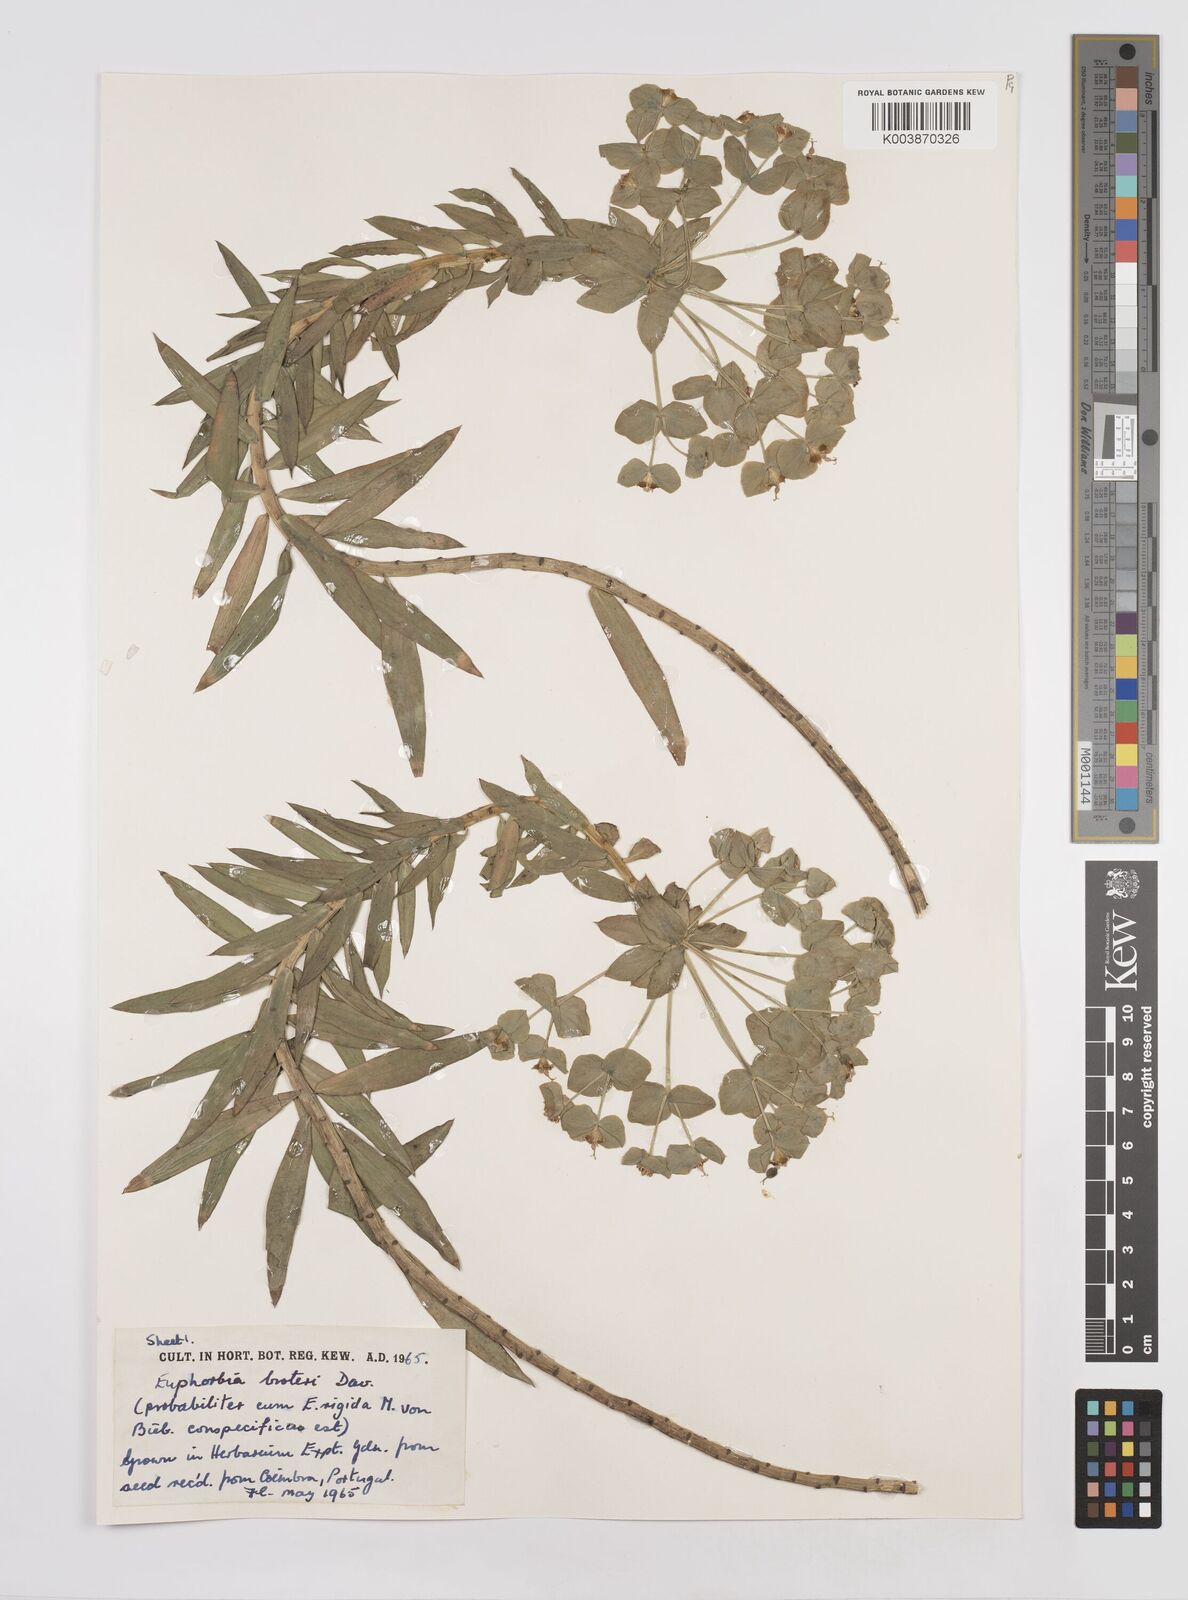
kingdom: Plantae
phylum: Tracheophyta
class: Magnoliopsida
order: Malpighiales
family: Euphorbiaceae
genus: Euphorbia
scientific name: Euphorbia oxyphylla
